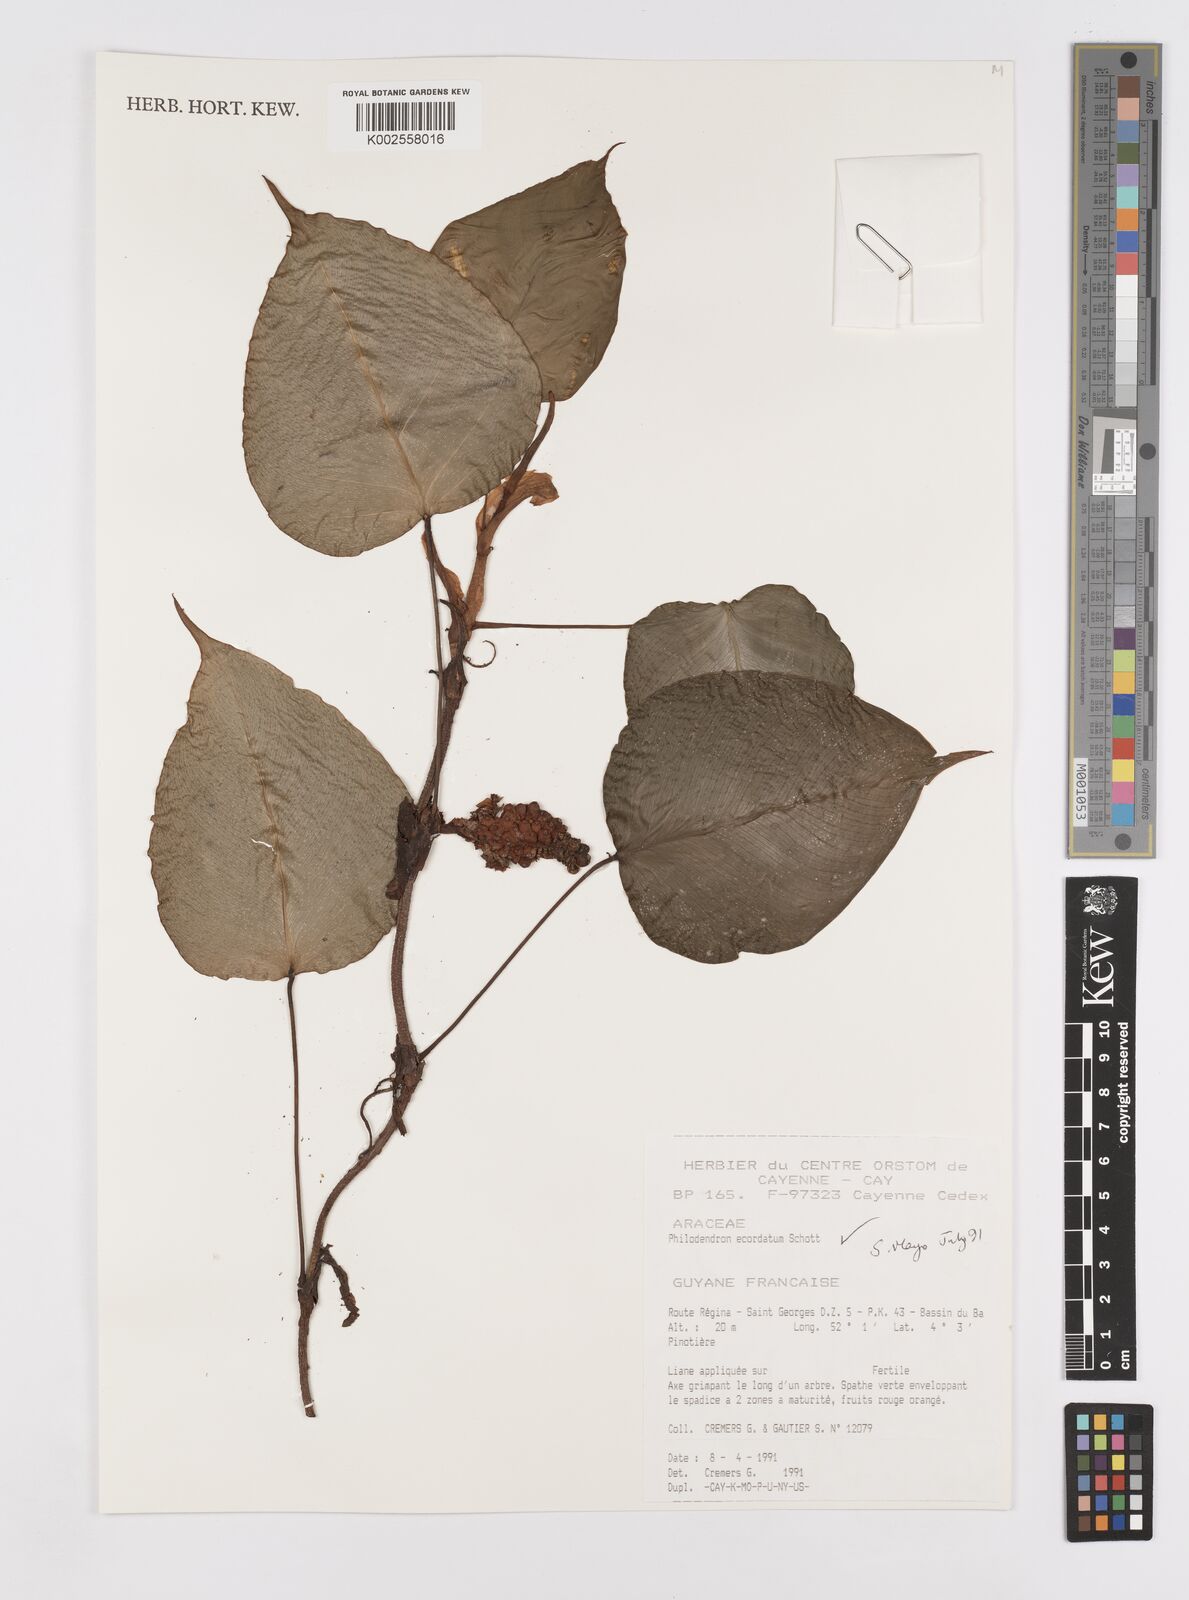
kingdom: Plantae
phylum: Tracheophyta
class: Liliopsida
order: Alismatales
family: Araceae
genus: Philodendron
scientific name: Philodendron ecordatum
